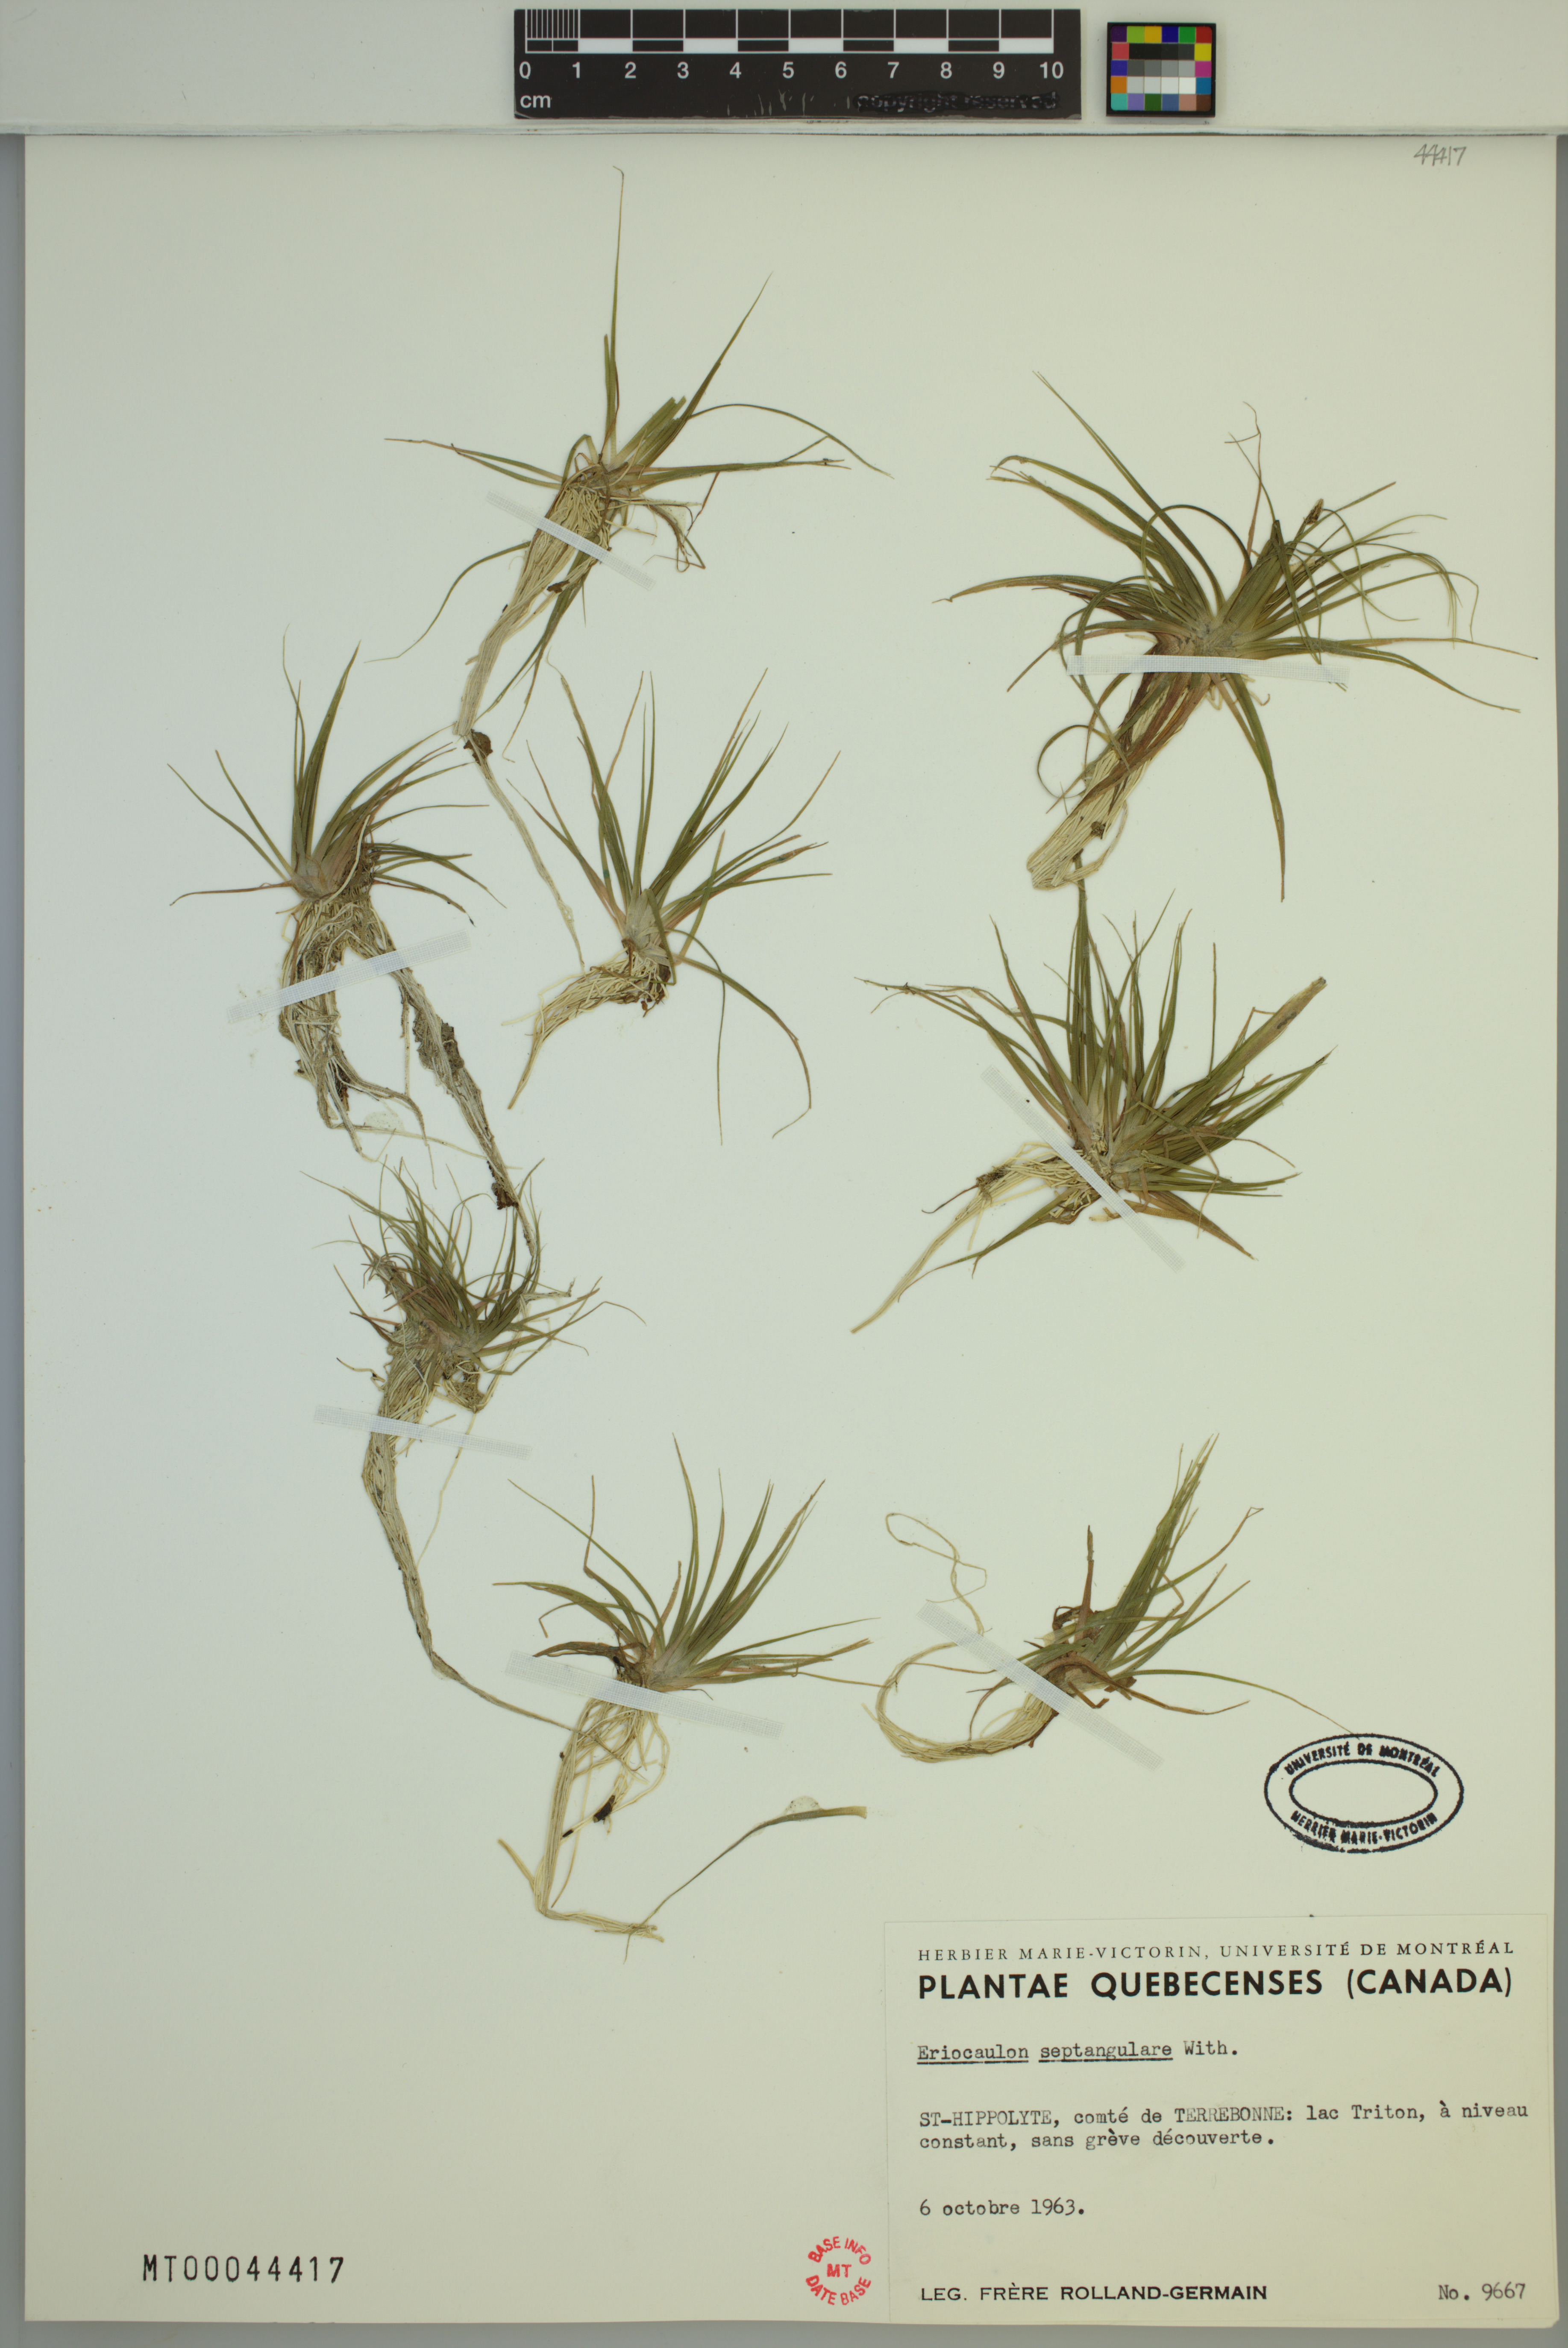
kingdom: Plantae
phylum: Tracheophyta
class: Liliopsida
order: Poales
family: Eriocaulaceae
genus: Eriocaulon
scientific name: Eriocaulon aquaticum
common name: Pipewort
